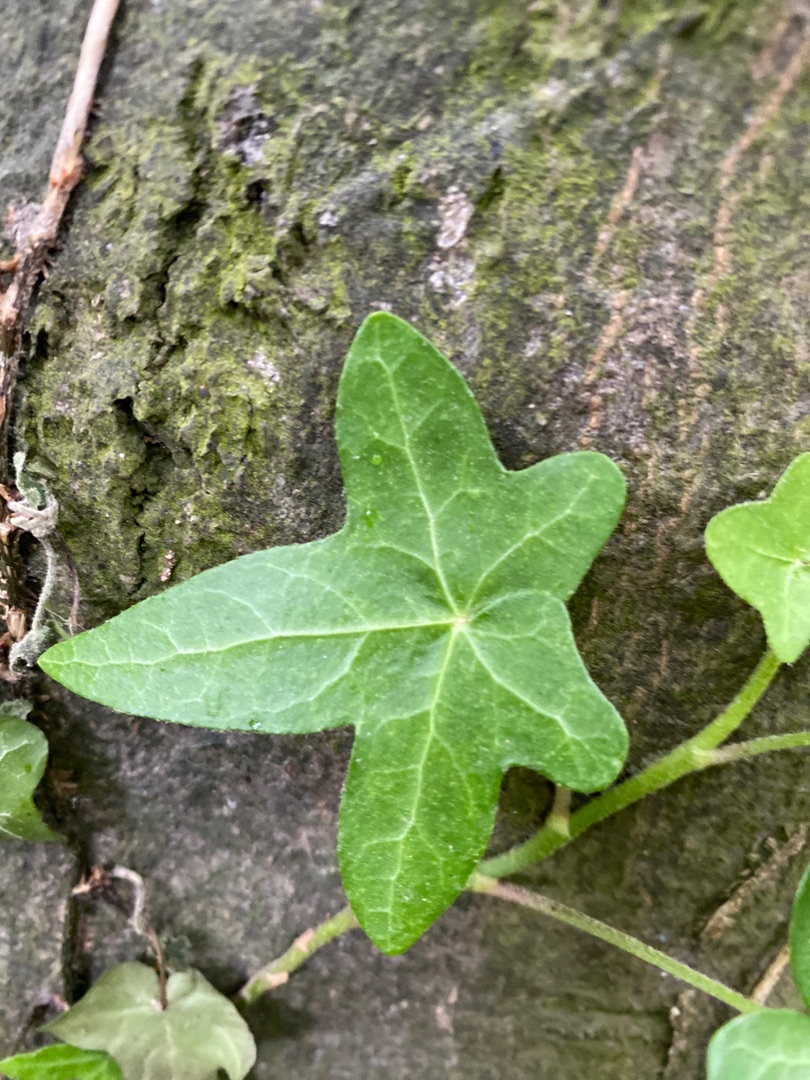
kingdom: Plantae
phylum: Tracheophyta
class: Magnoliopsida
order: Apiales
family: Araliaceae
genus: Hedera
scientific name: Hedera helix
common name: Vedbend
